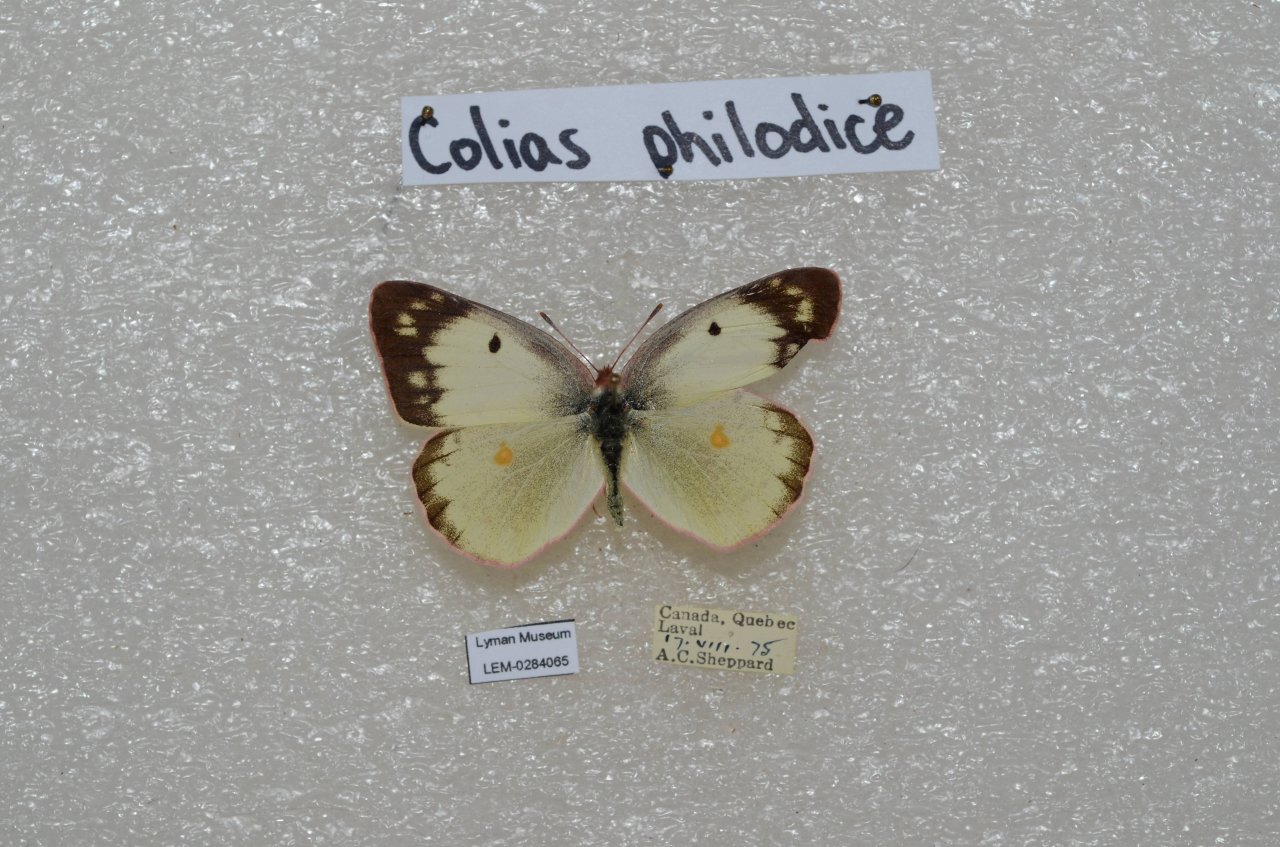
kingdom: Animalia
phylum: Arthropoda
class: Insecta
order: Lepidoptera
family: Pieridae
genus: Colias
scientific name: Colias philodice
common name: Clouded Sulphur
